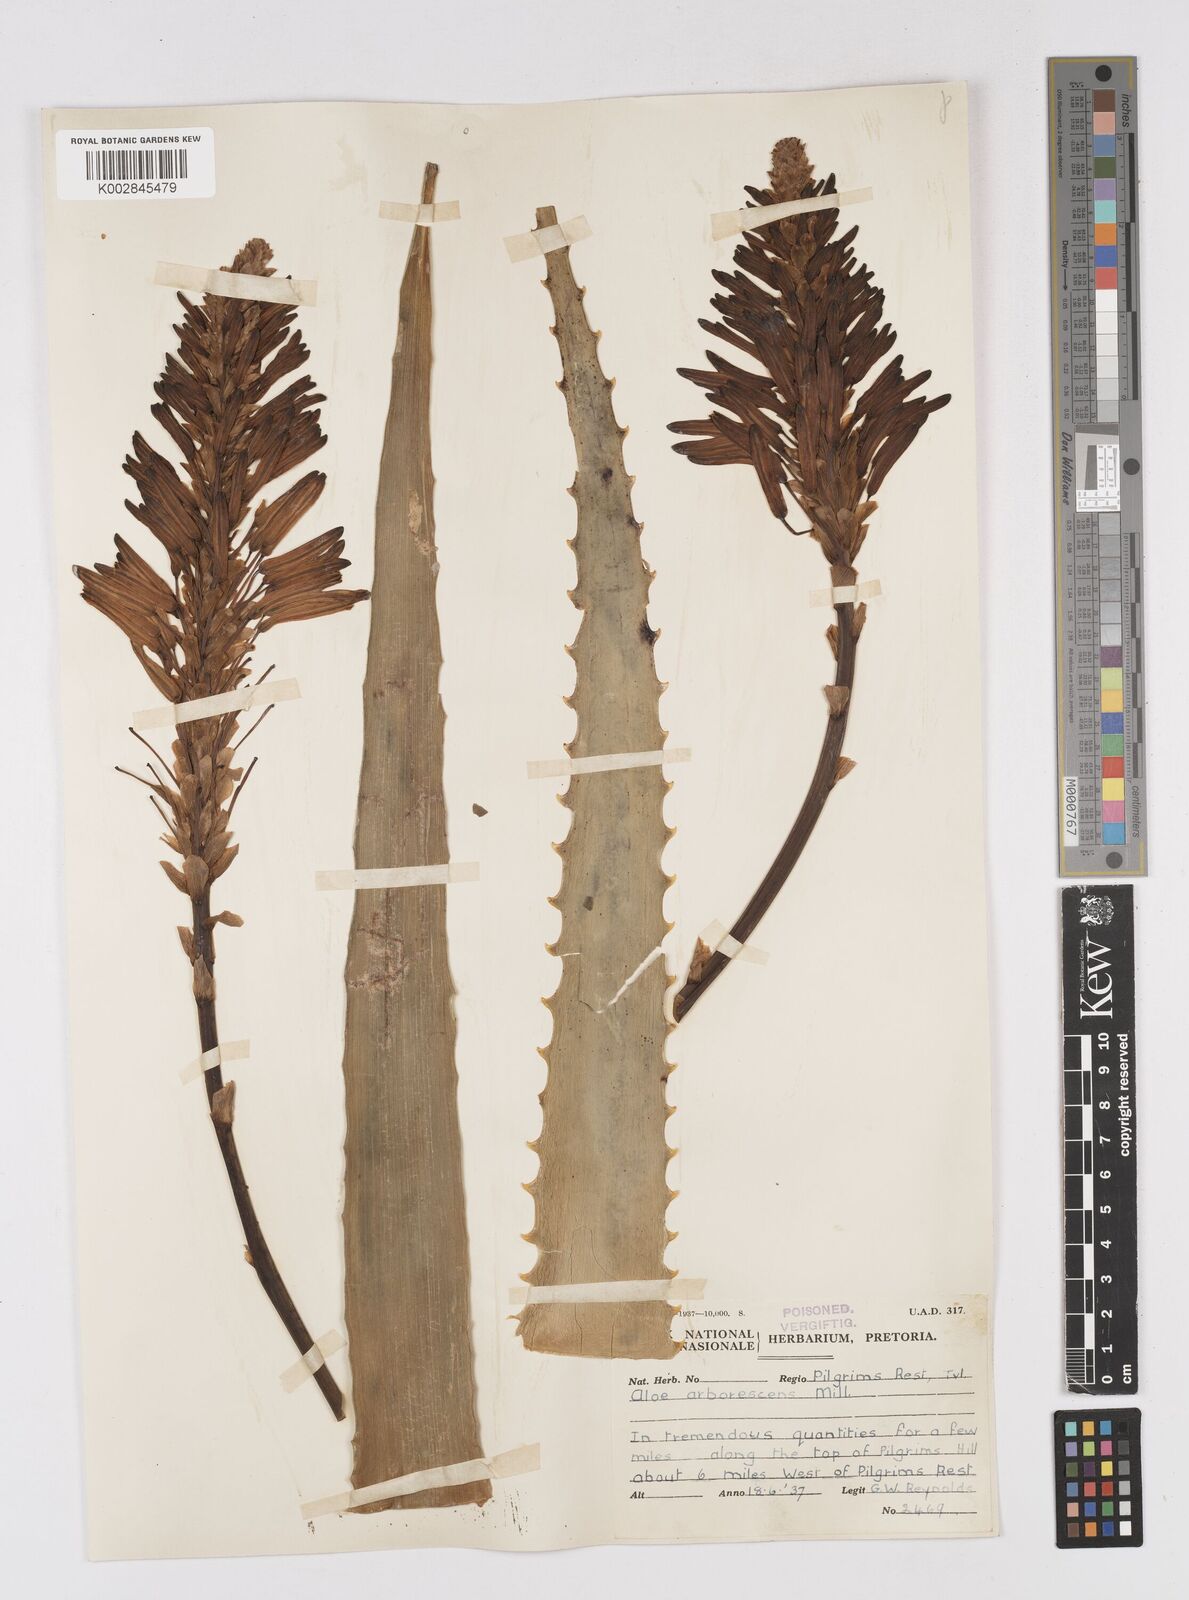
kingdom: Plantae
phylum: Tracheophyta
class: Liliopsida
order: Asparagales
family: Asphodelaceae
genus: Aloe
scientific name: Aloe arborescens
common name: Candelabra aloe
